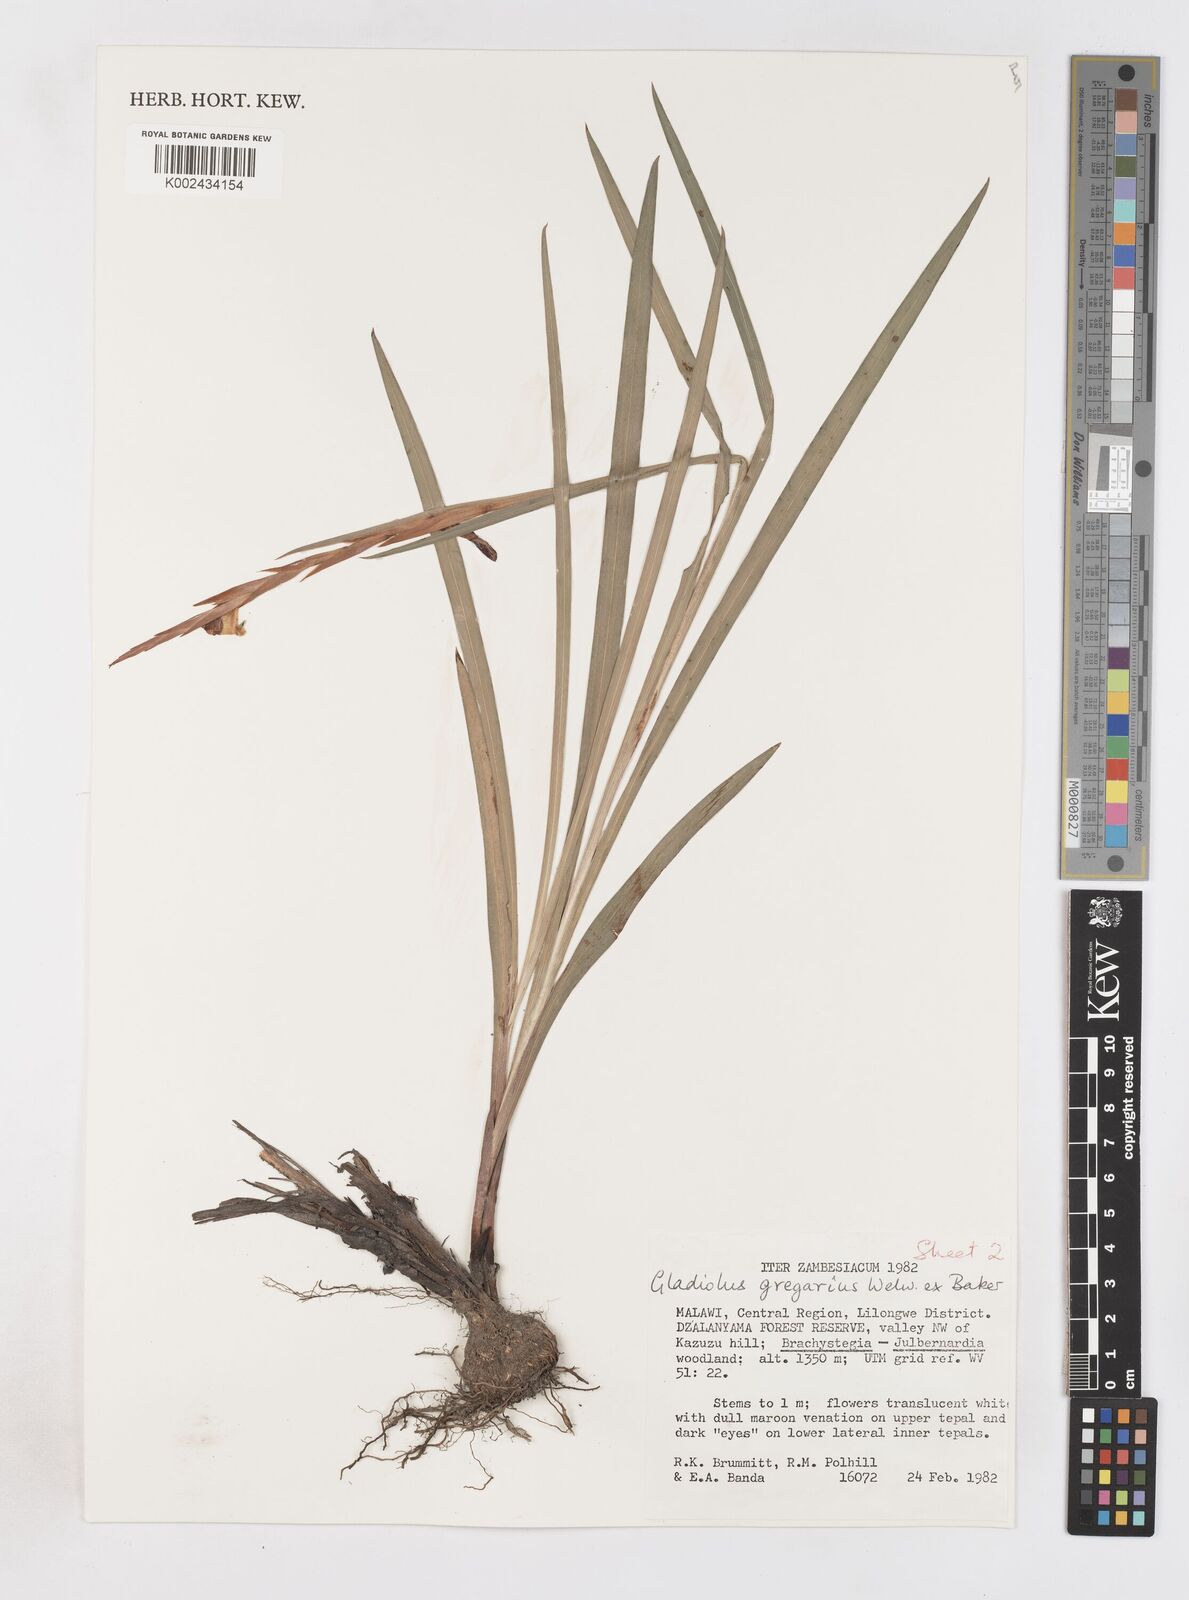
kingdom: Plantae
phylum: Tracheophyta
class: Liliopsida
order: Asparagales
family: Iridaceae
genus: Gladiolus
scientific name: Gladiolus gregarius
